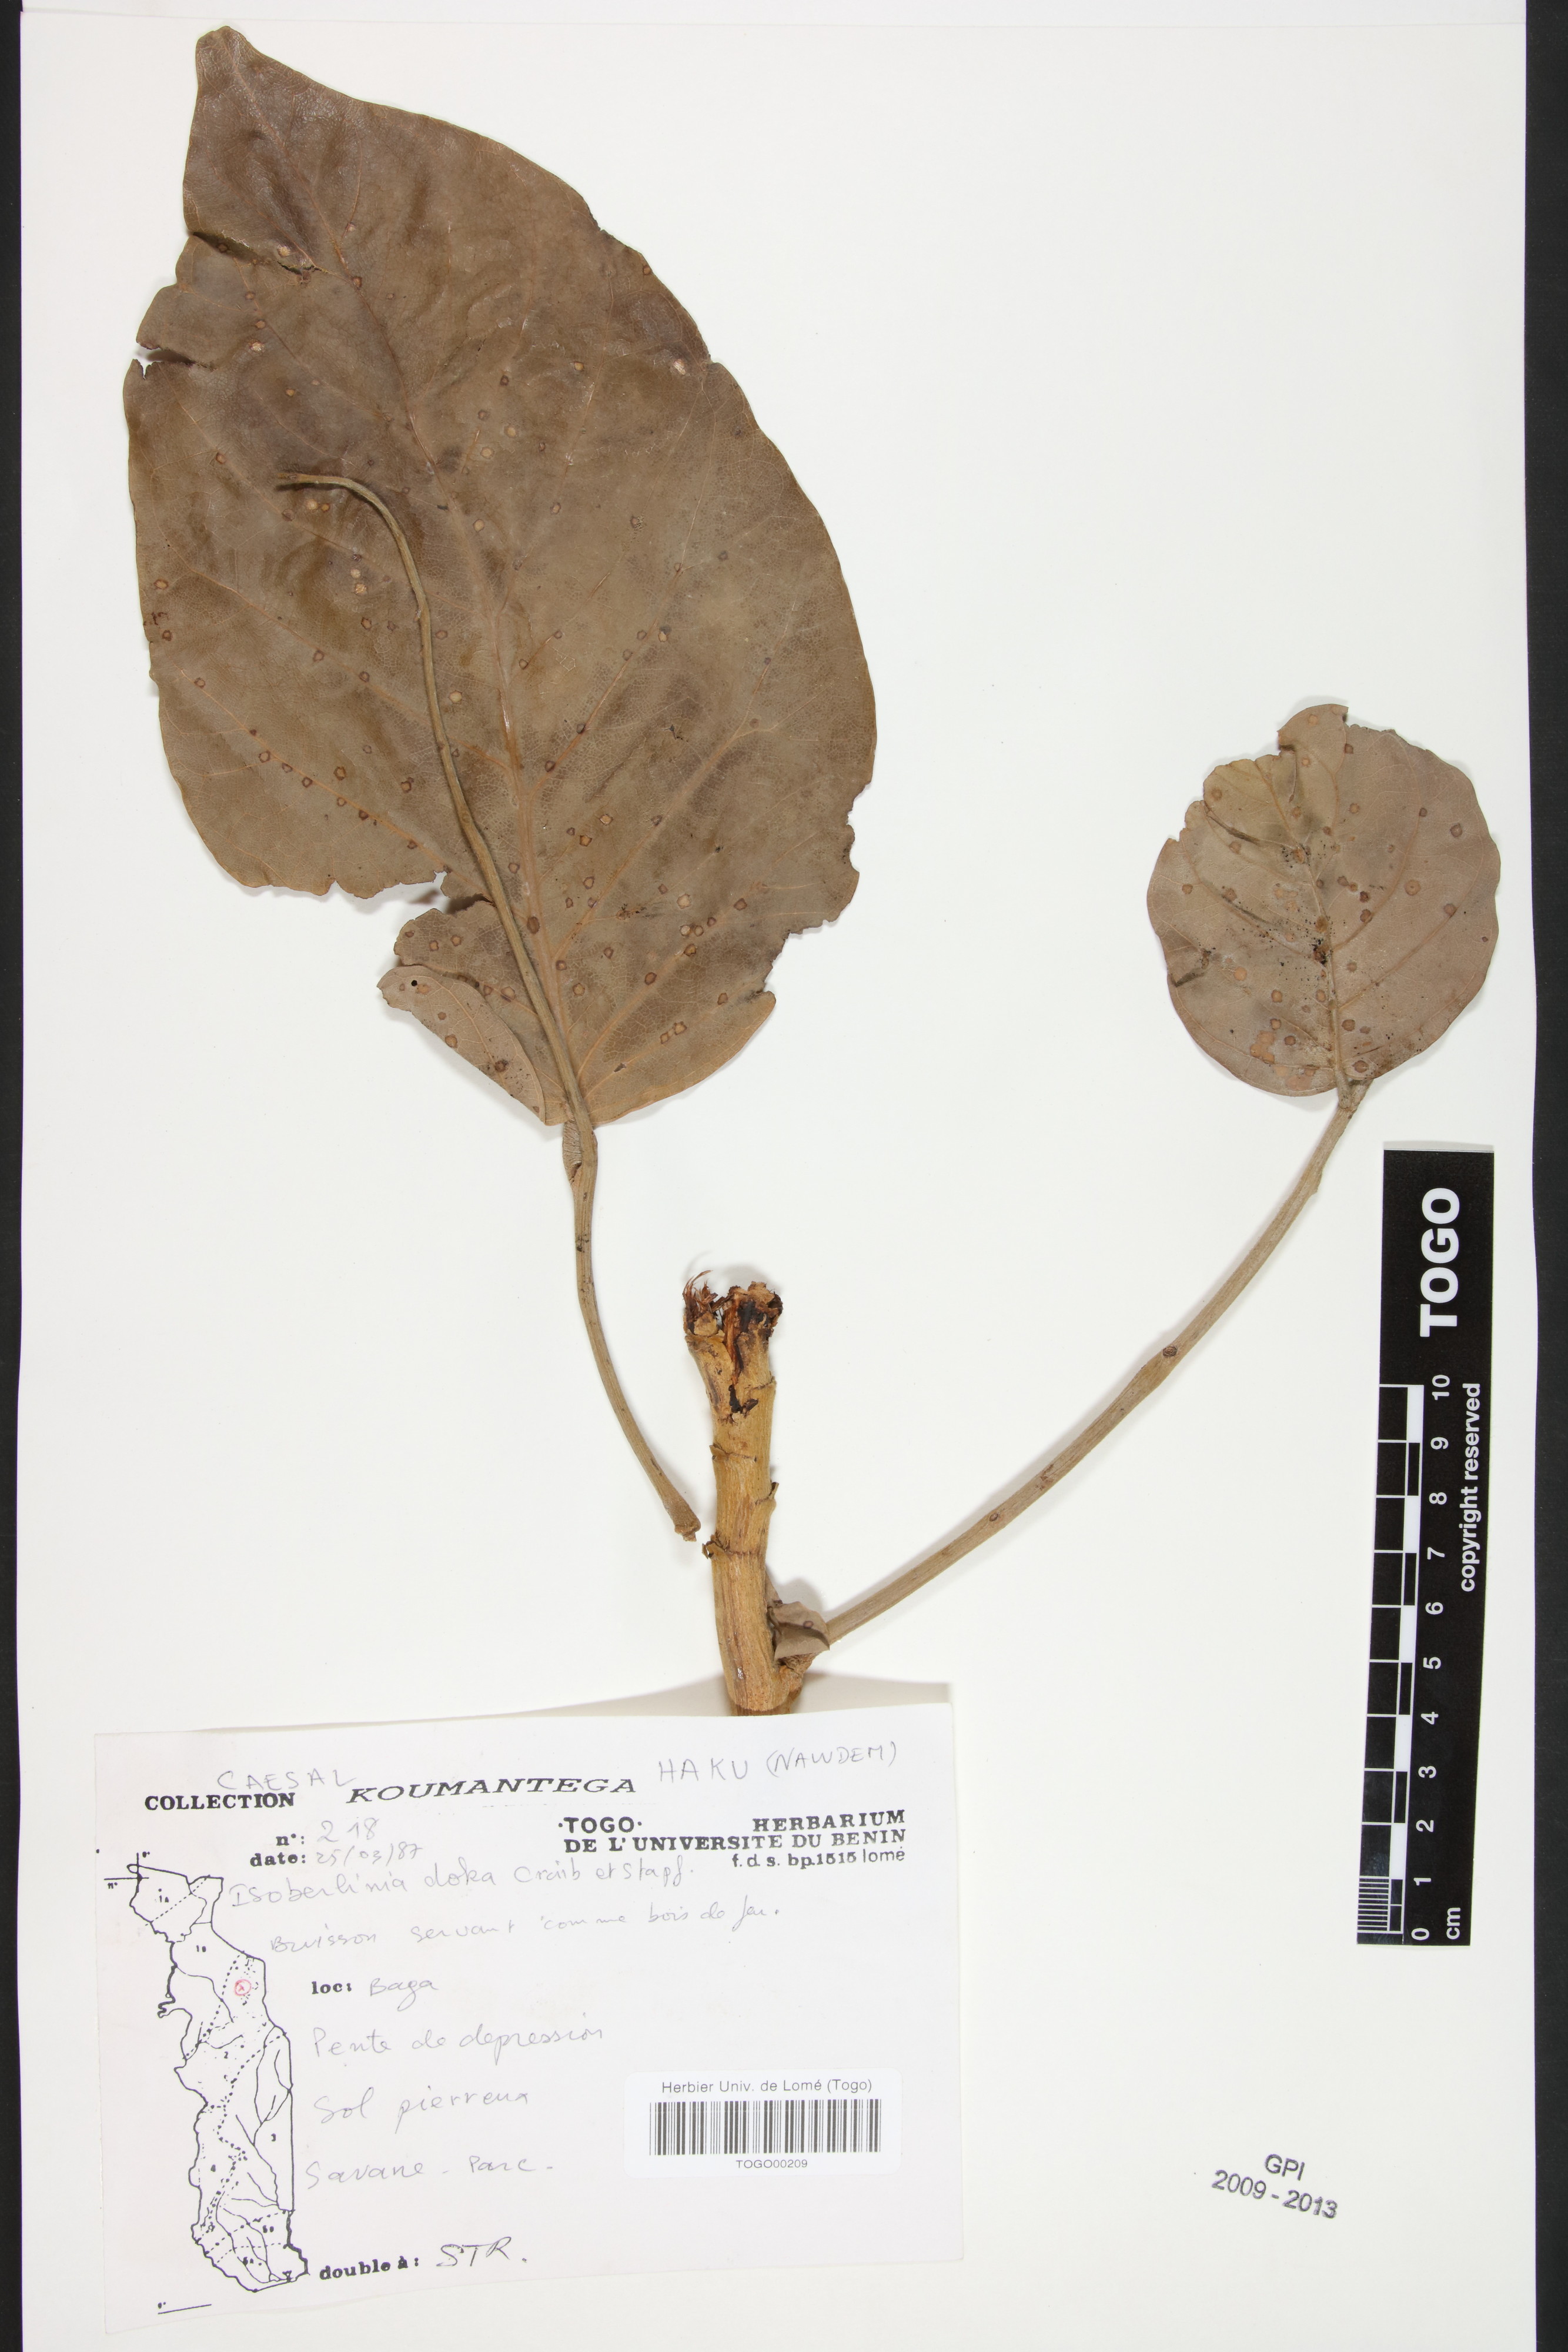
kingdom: Plantae
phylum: Tracheophyta
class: Magnoliopsida
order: Fabales
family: Fabaceae
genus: Isoberlinia
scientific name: Isoberlinia doka
